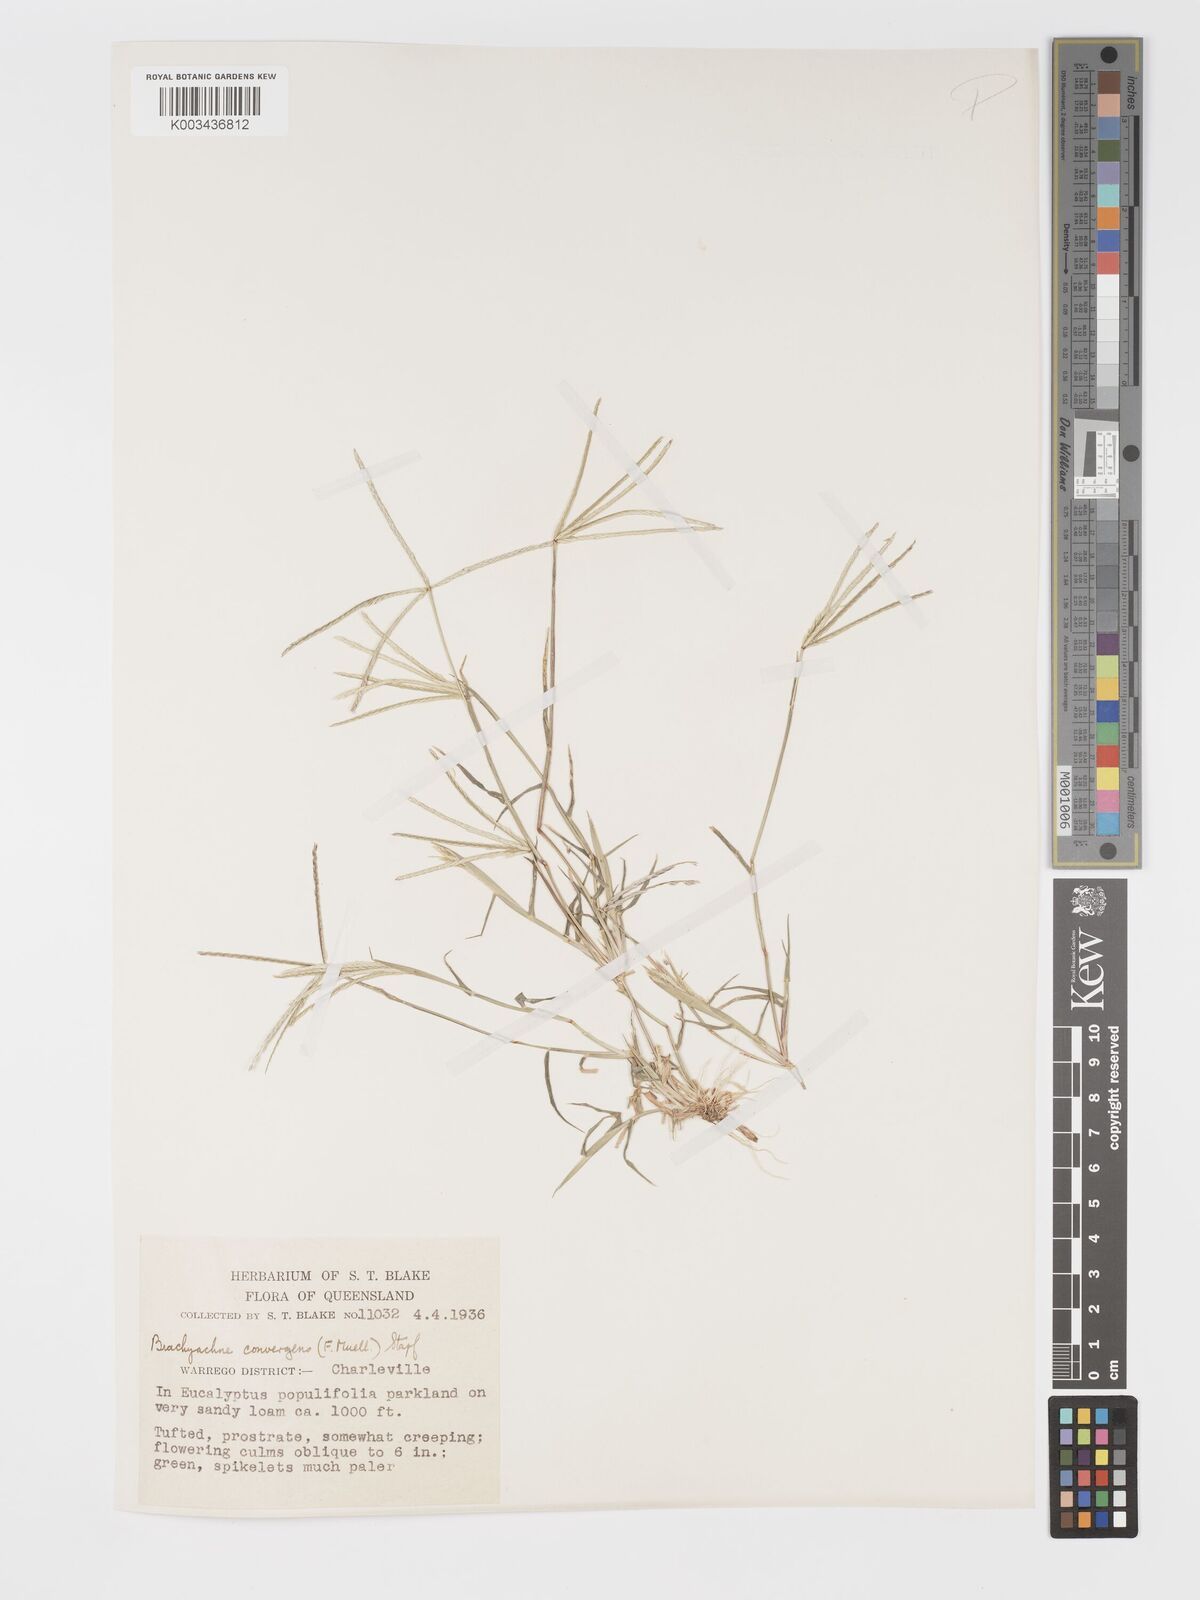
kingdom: Plantae
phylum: Tracheophyta
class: Liliopsida
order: Poales
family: Poaceae
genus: Cynodon
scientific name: Cynodon convergens
